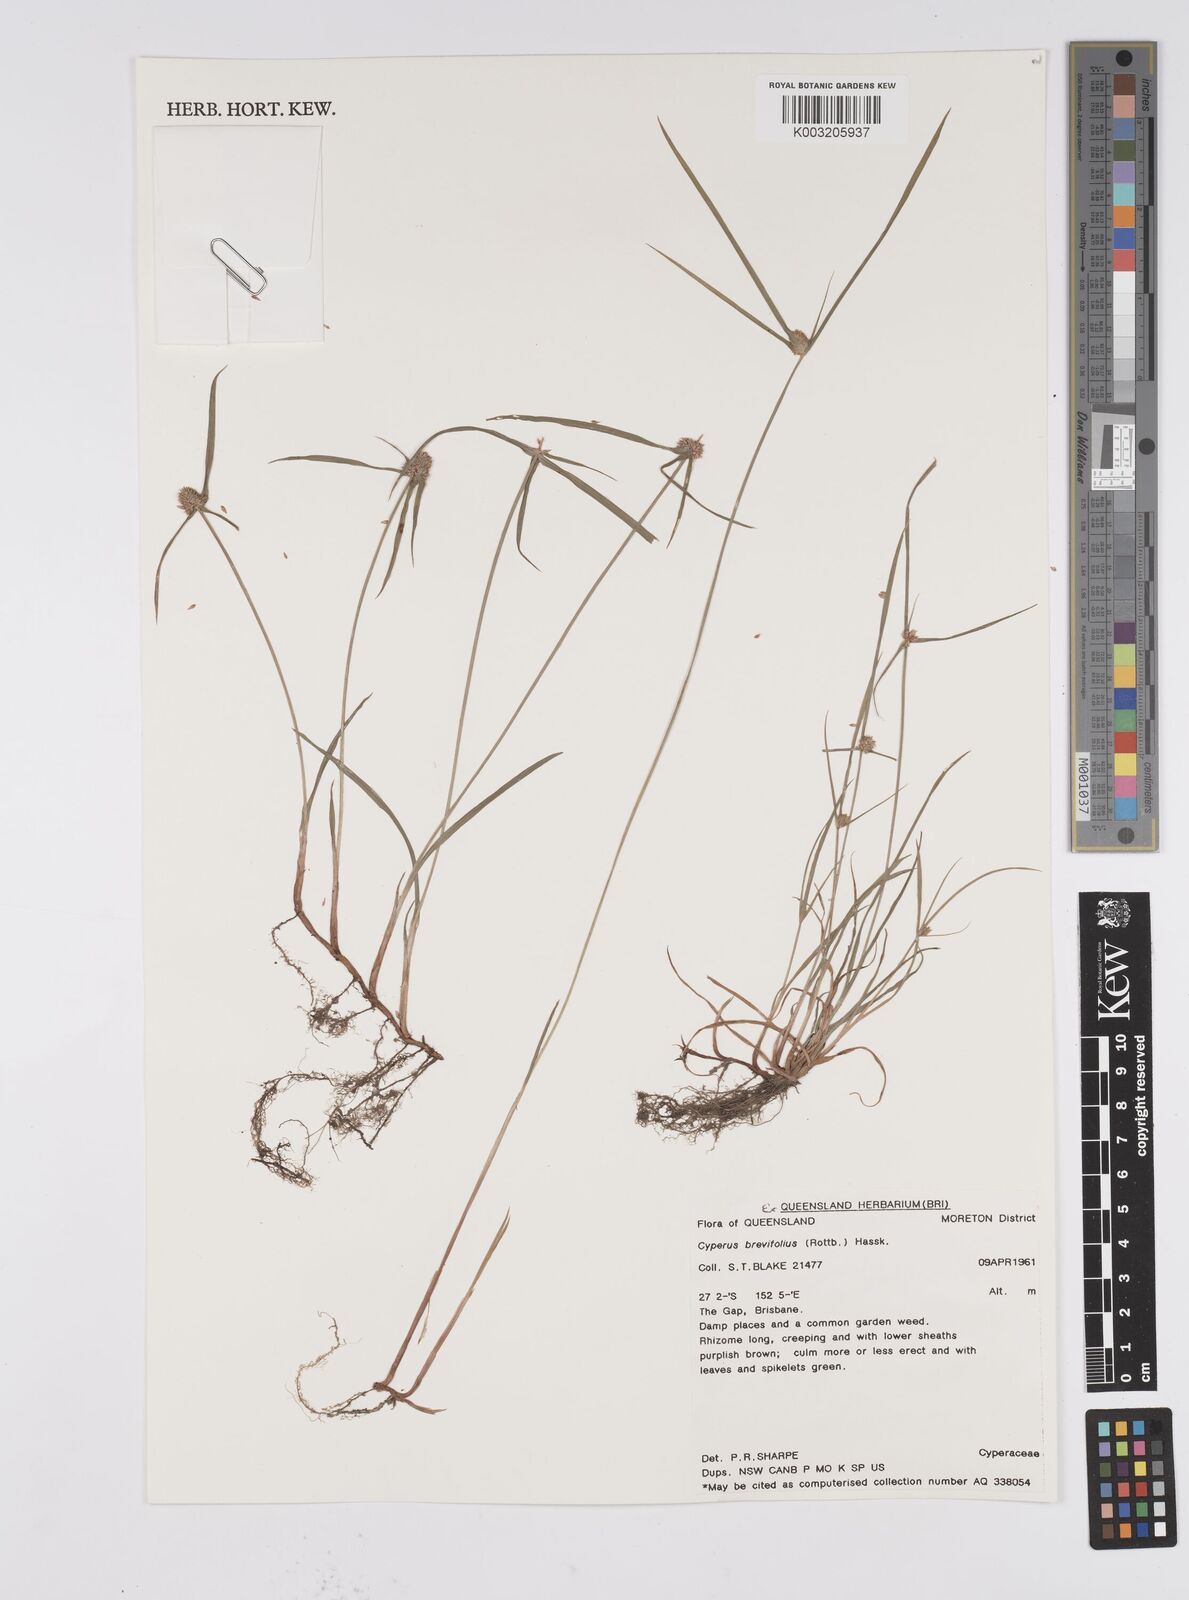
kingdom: Plantae
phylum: Tracheophyta
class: Liliopsida
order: Poales
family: Cyperaceae
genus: Cyperus
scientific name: Cyperus brevifolius
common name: Globe kyllinga
